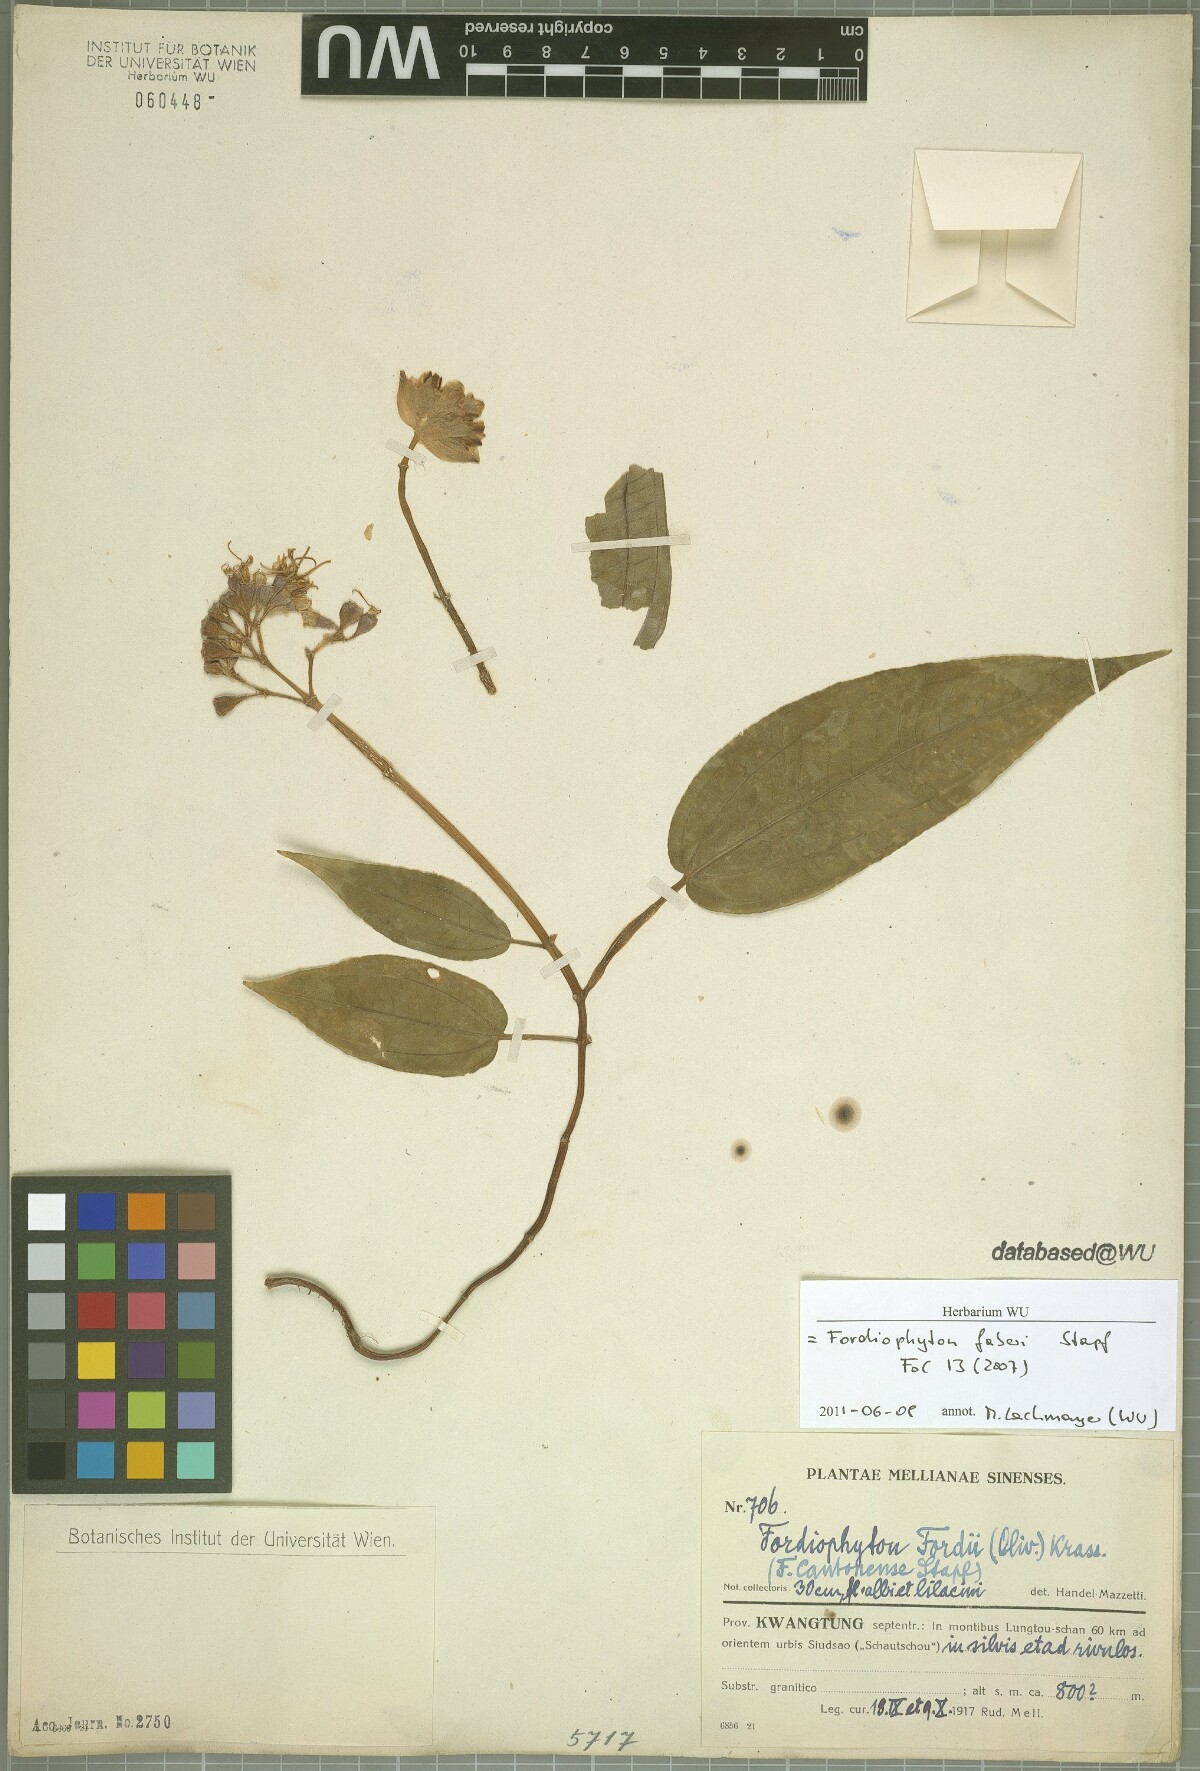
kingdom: Plantae
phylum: Tracheophyta
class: Magnoliopsida
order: Myrtales
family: Melastomataceae
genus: Fordiophyton
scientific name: Fordiophyton faberi
